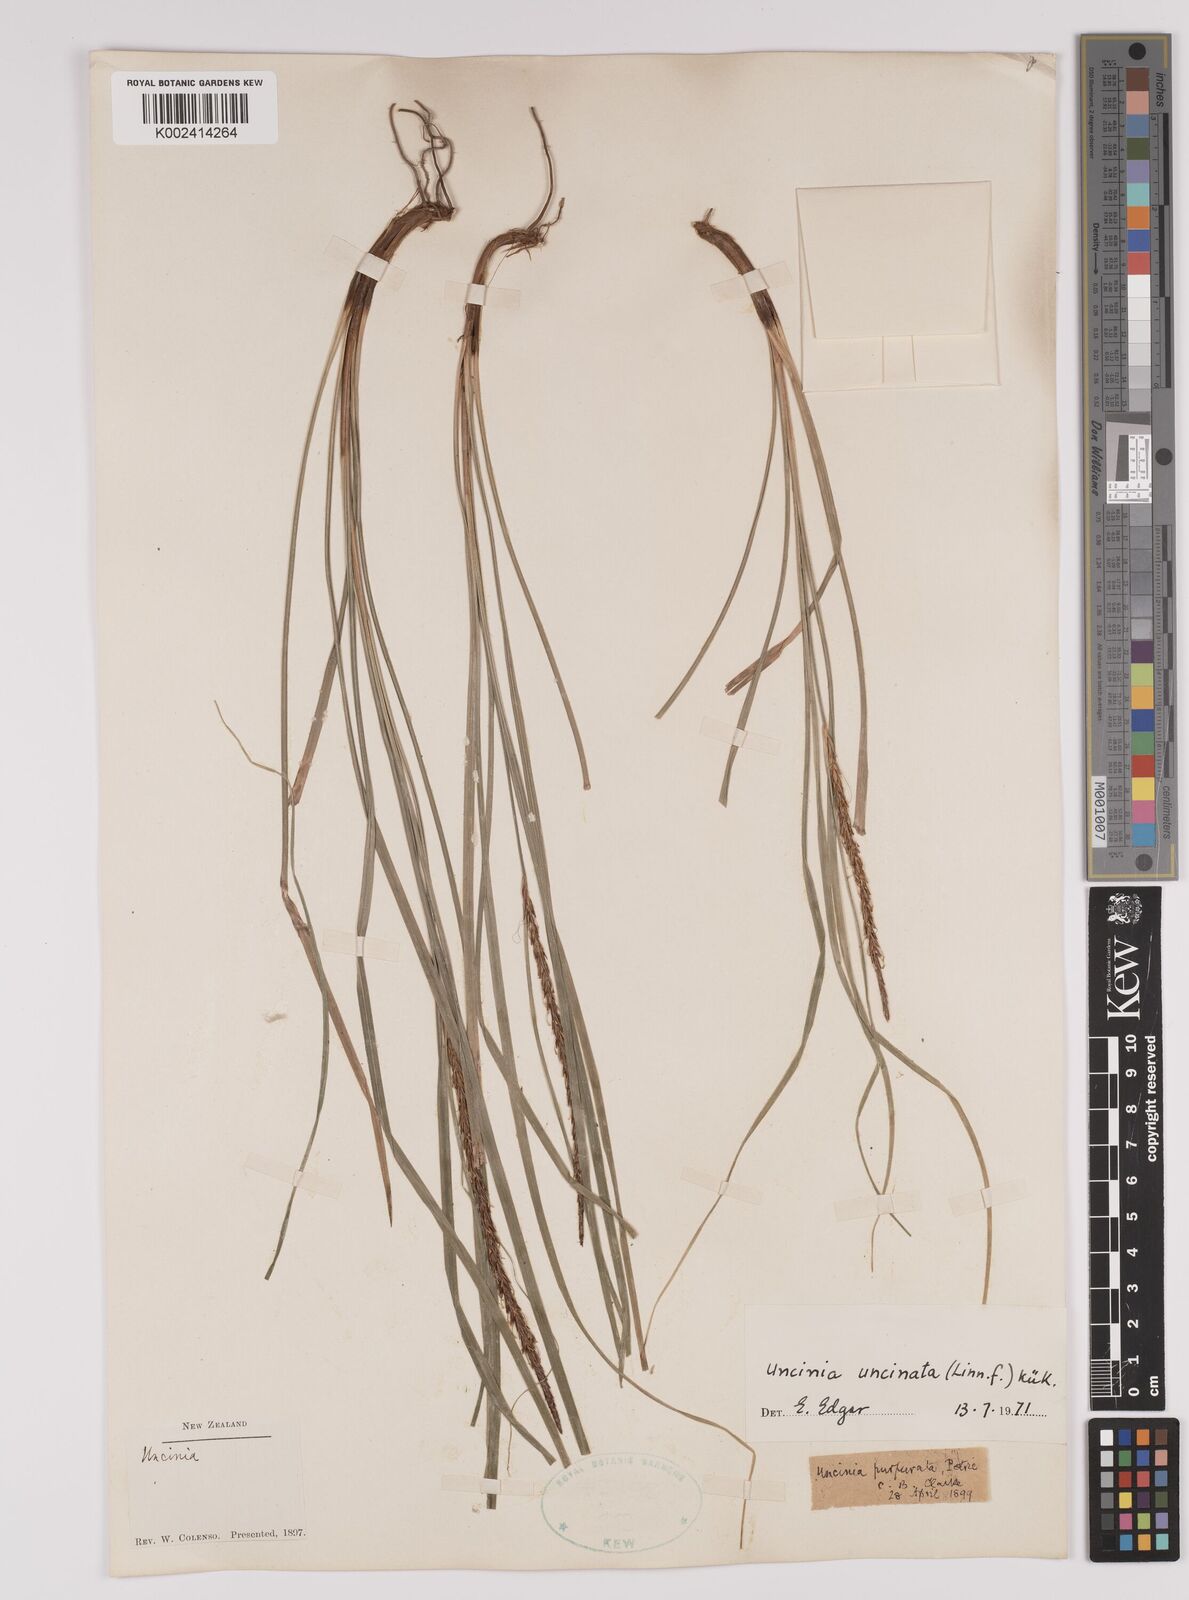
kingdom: Plantae
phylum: Tracheophyta
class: Liliopsida
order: Poales
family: Cyperaceae
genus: Carex
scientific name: Carex uncinata
